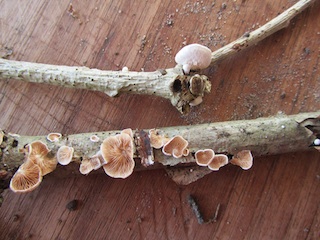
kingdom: Fungi
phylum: Basidiomycota
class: Agaricomycetes
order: Agaricales
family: Crepidotaceae
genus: Crepidotus
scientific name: Crepidotus variabilis
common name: forskelligformet muslingesvamp
